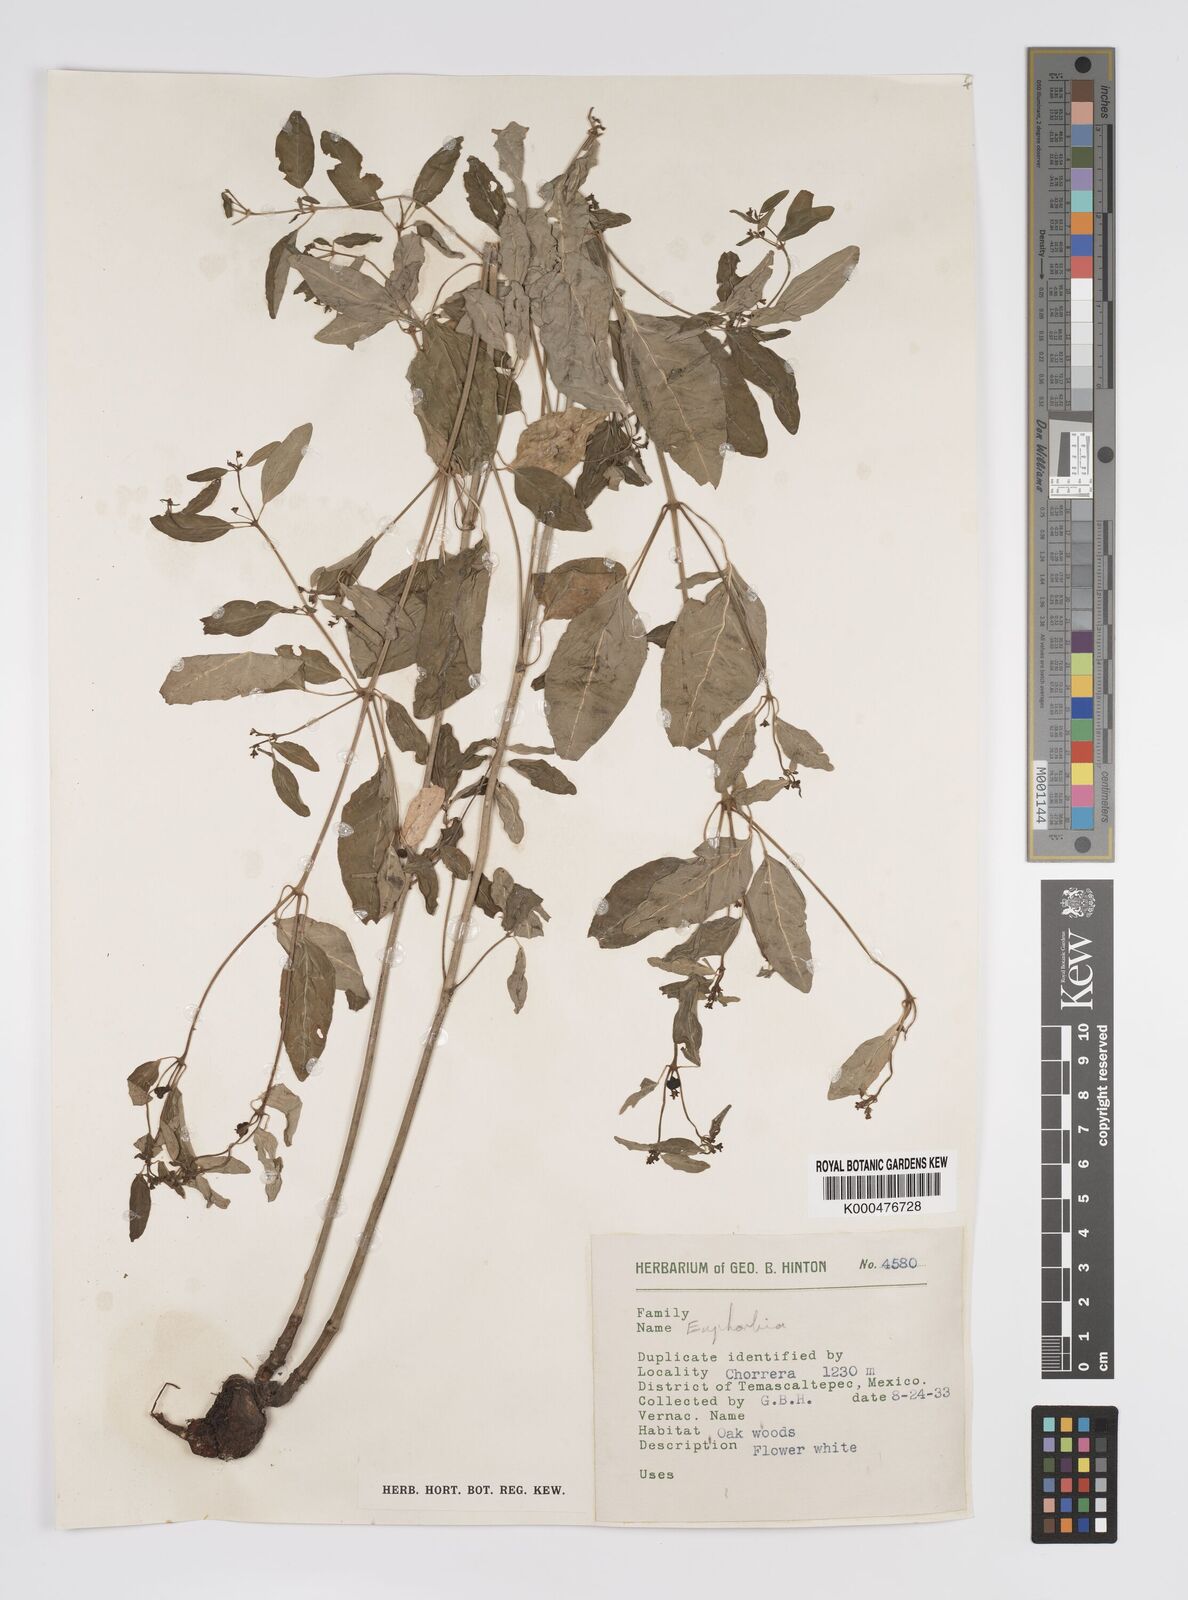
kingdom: Plantae
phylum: Tracheophyta
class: Magnoliopsida
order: Malpighiales
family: Euphorbiaceae
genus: Euphorbia
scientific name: Euphorbia
